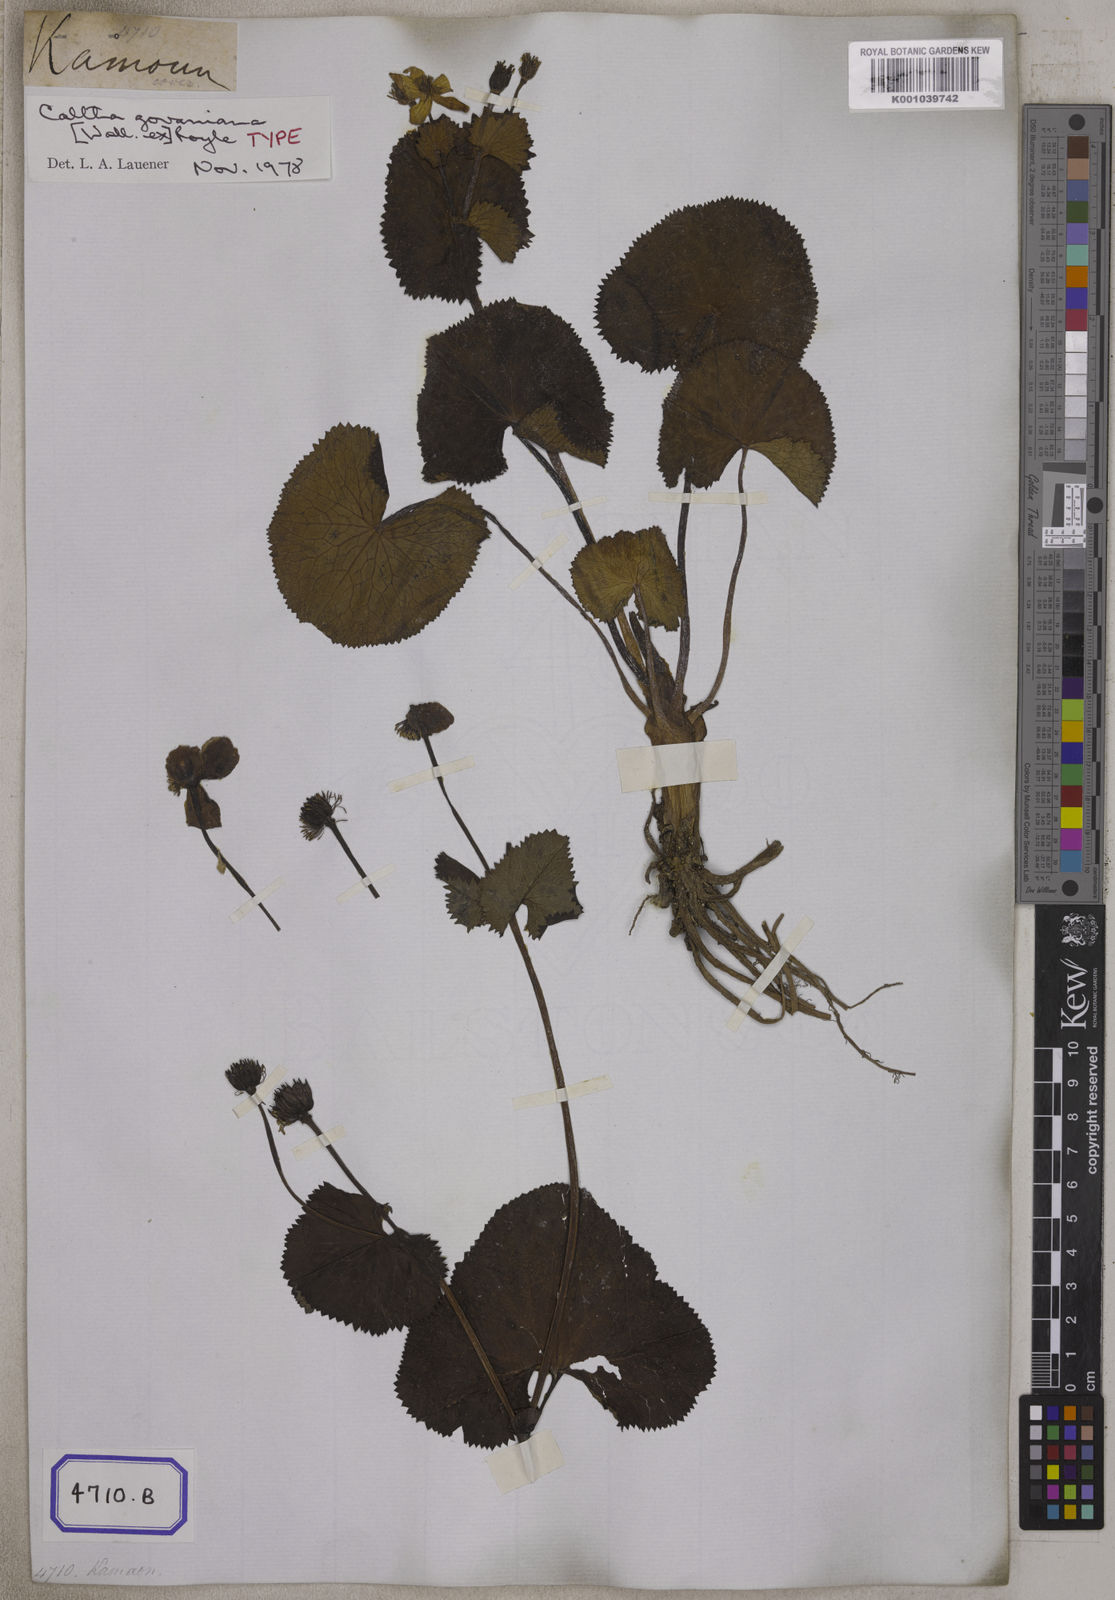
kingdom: Plantae
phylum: Tracheophyta
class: Magnoliopsida
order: Ranunculales
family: Ranunculaceae
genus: Caltha
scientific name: Caltha
